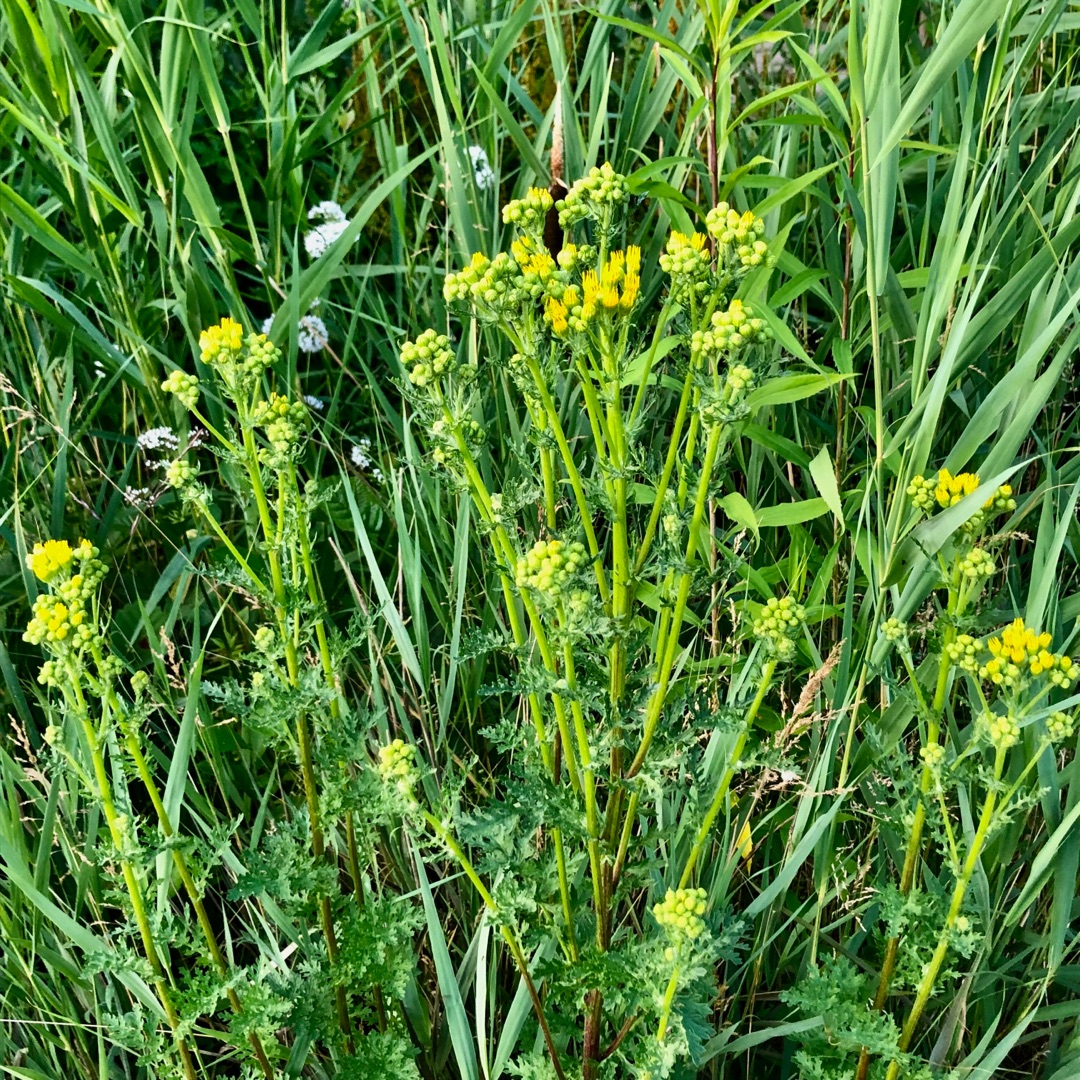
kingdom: Plantae
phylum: Tracheophyta
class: Magnoliopsida
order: Asterales
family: Asteraceae
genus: Jacobaea
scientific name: Jacobaea vulgaris
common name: Eng-brandbæger
